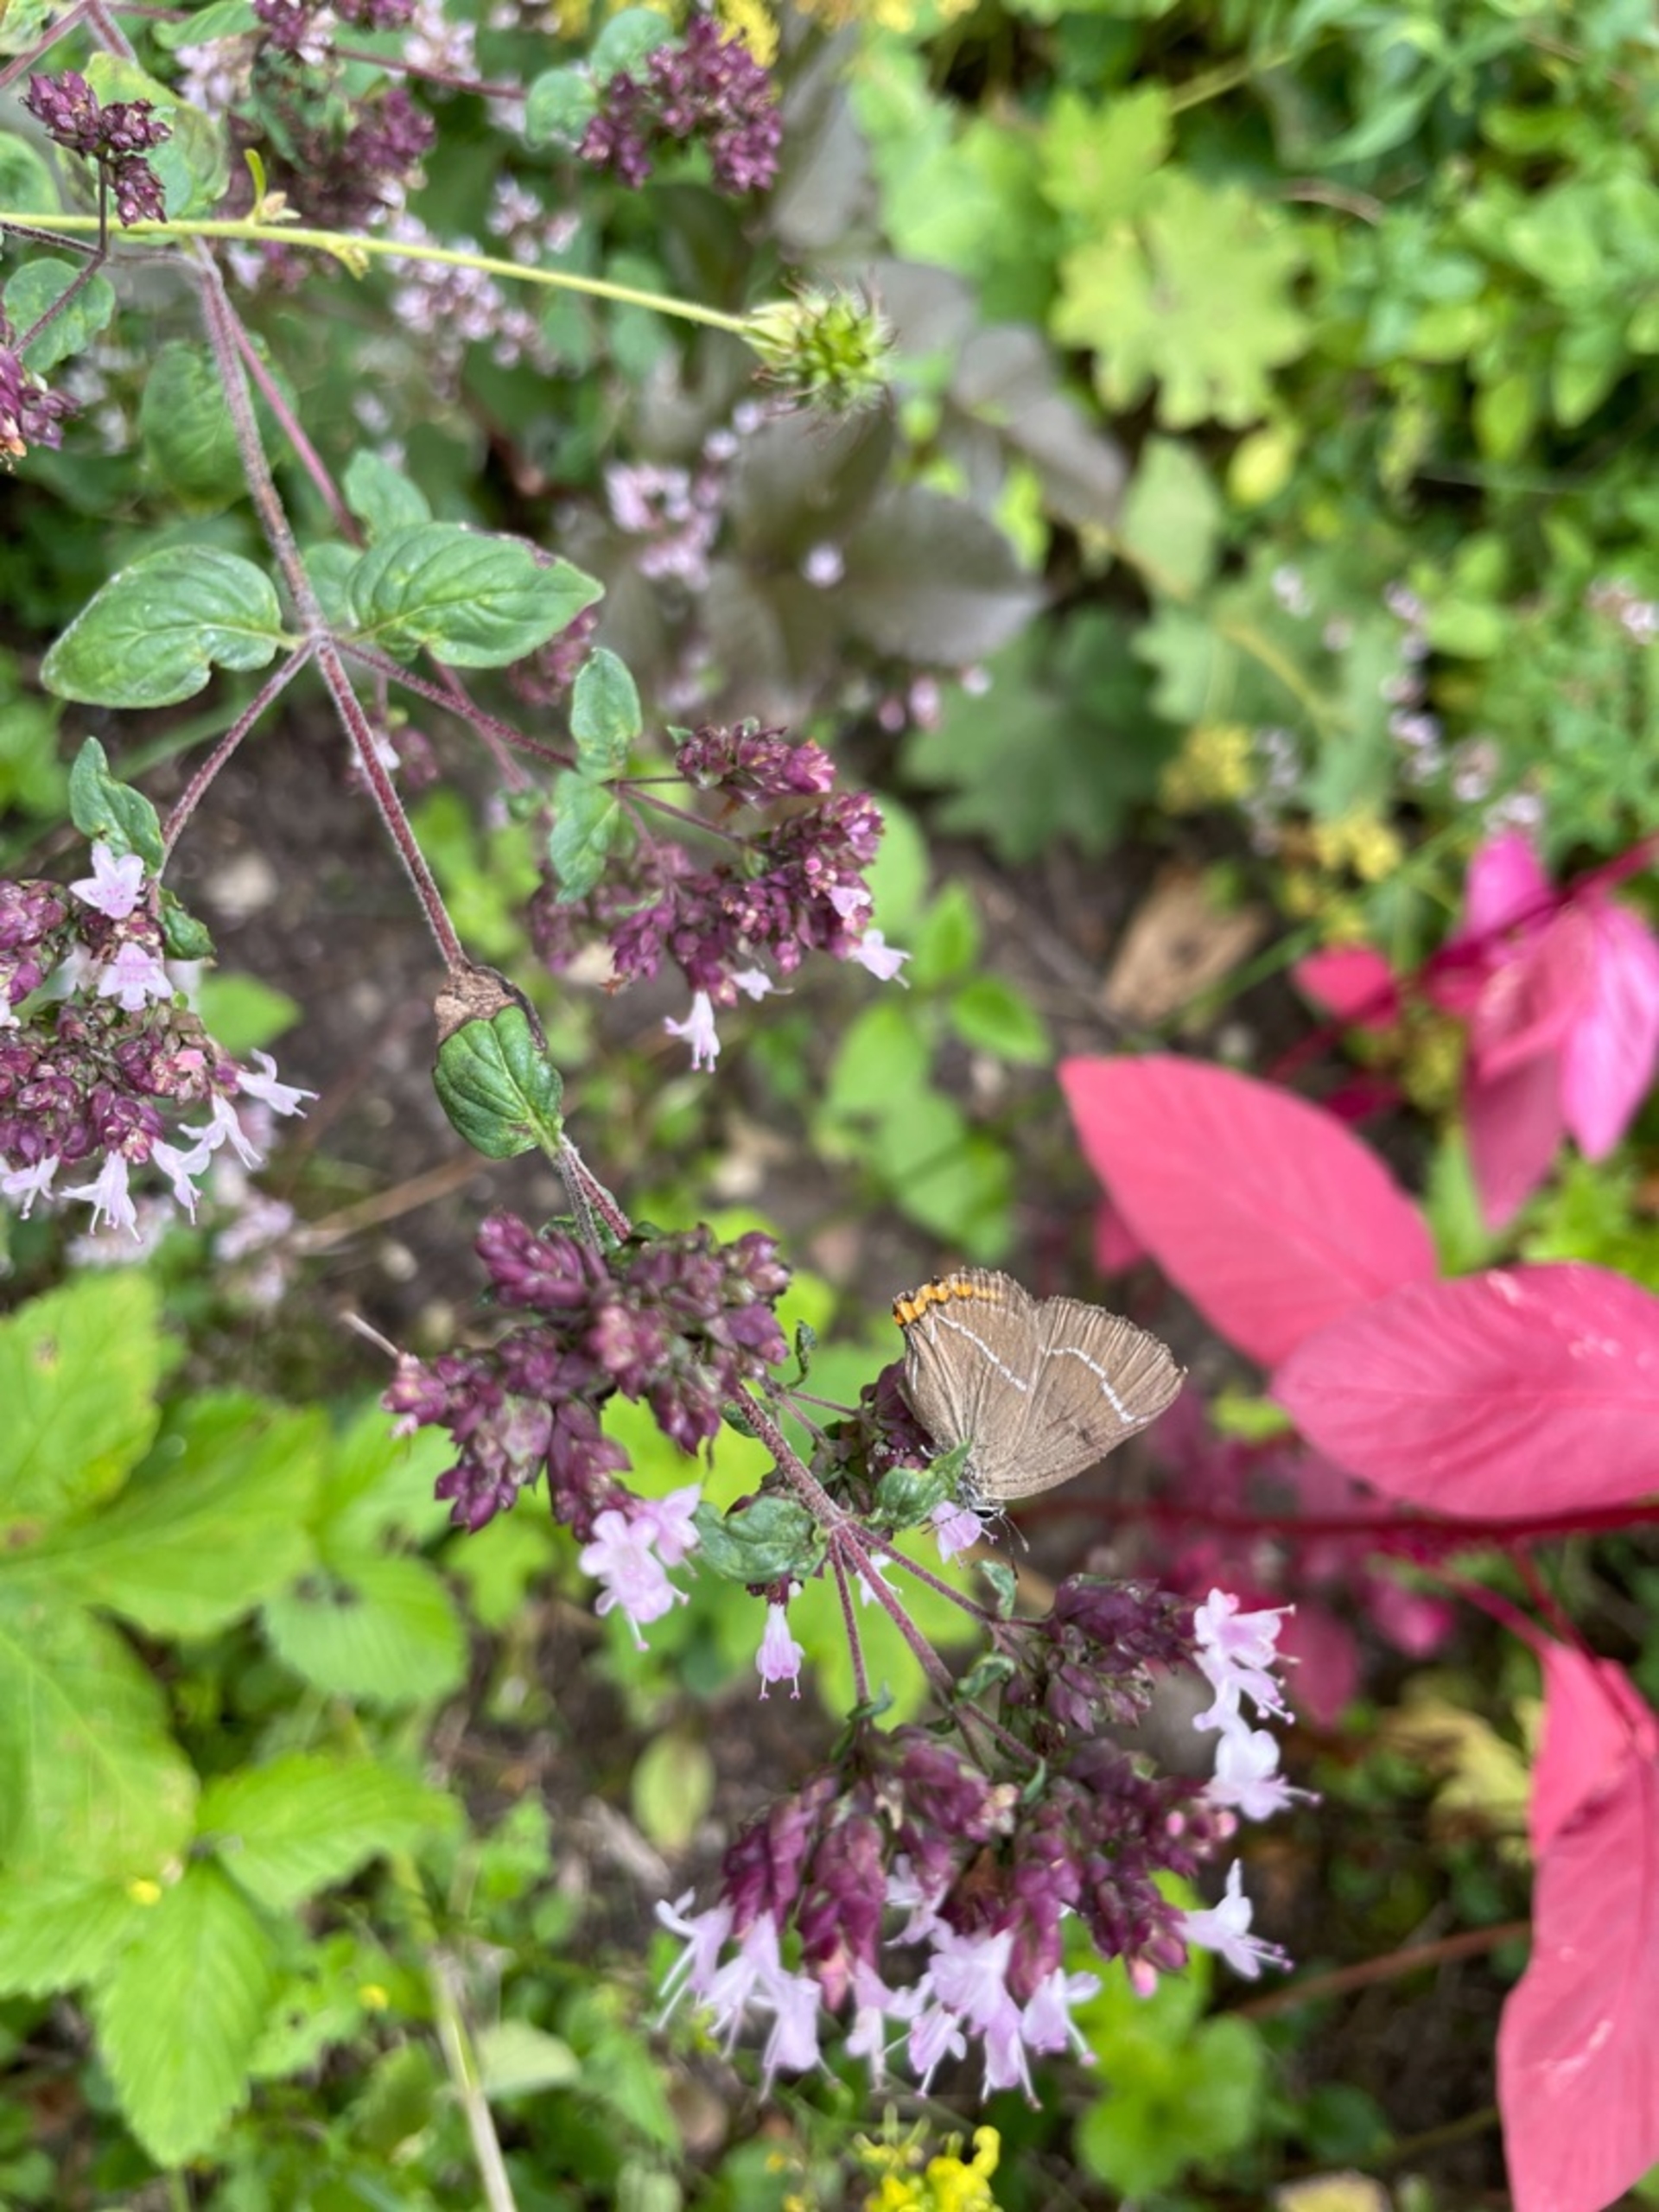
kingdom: Animalia
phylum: Arthropoda
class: Insecta
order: Lepidoptera
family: Lycaenidae
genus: Satyrium
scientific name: Satyrium w-album
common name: Det hvide W
